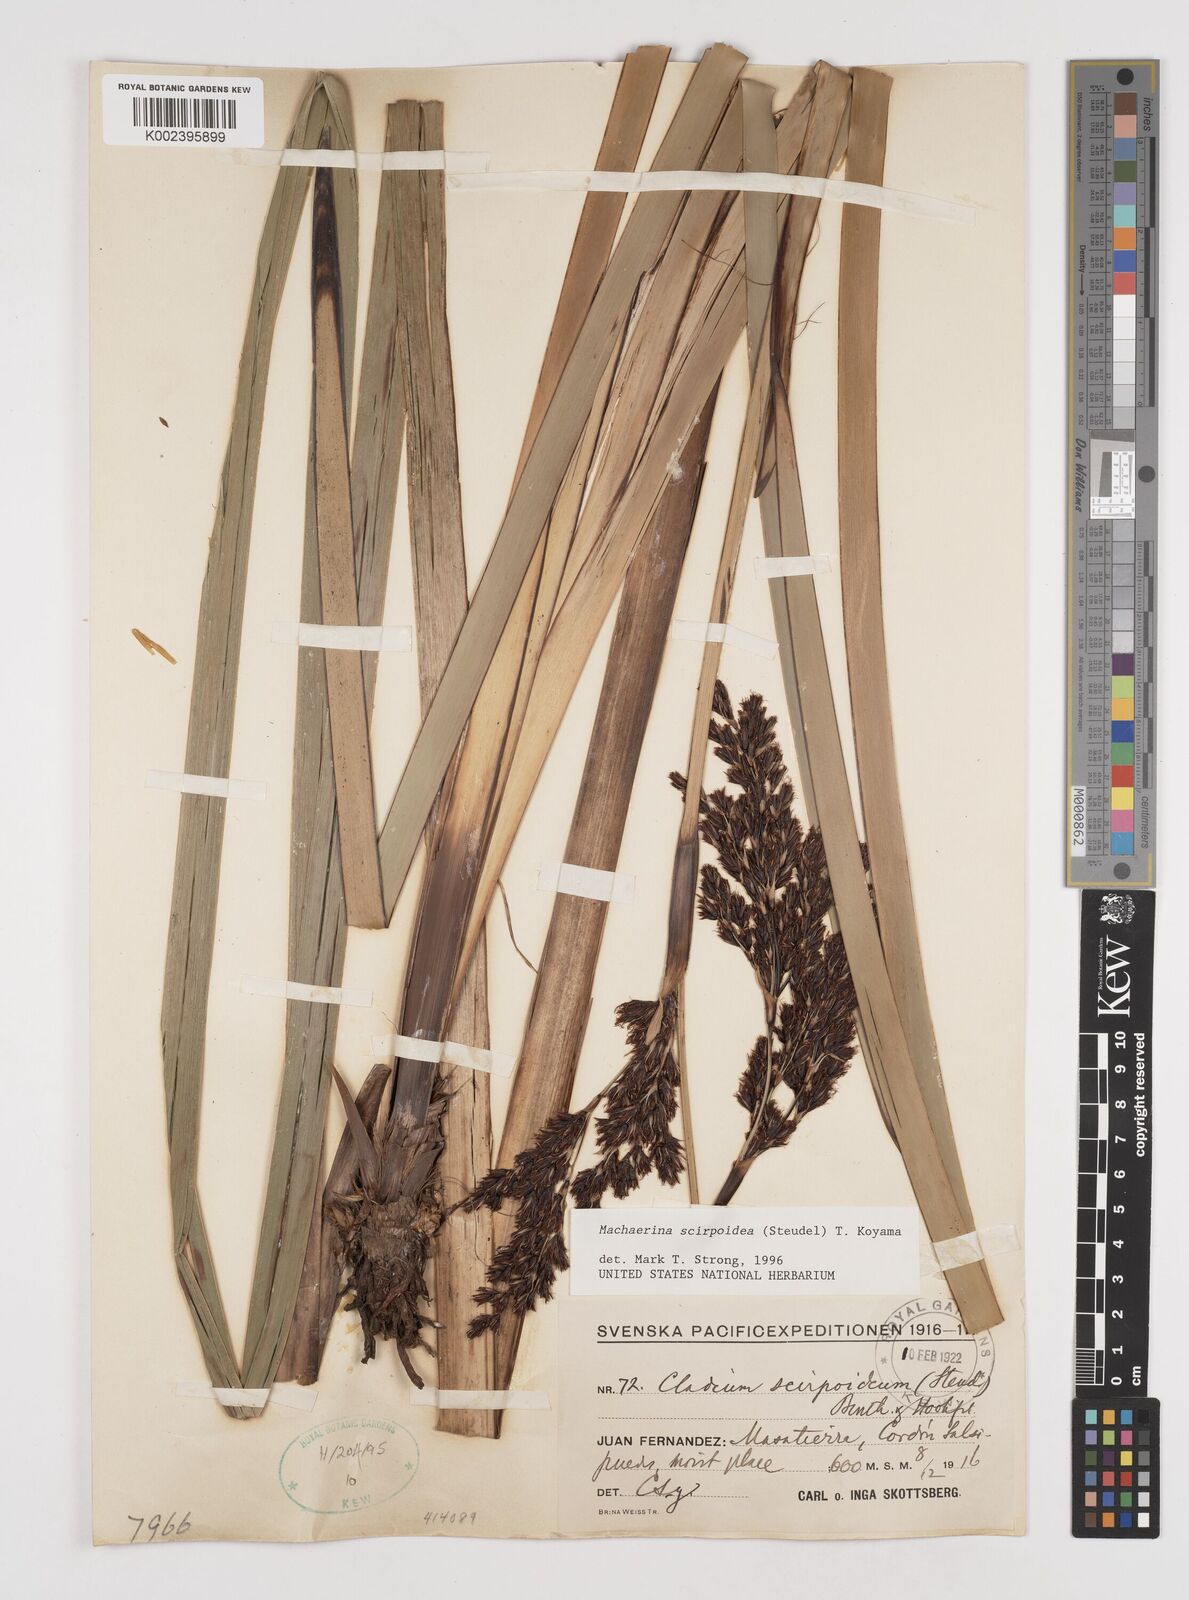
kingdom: Plantae
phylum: Tracheophyta
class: Liliopsida
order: Poales
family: Cyperaceae
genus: Machaerina
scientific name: Machaerina scirpoidea
